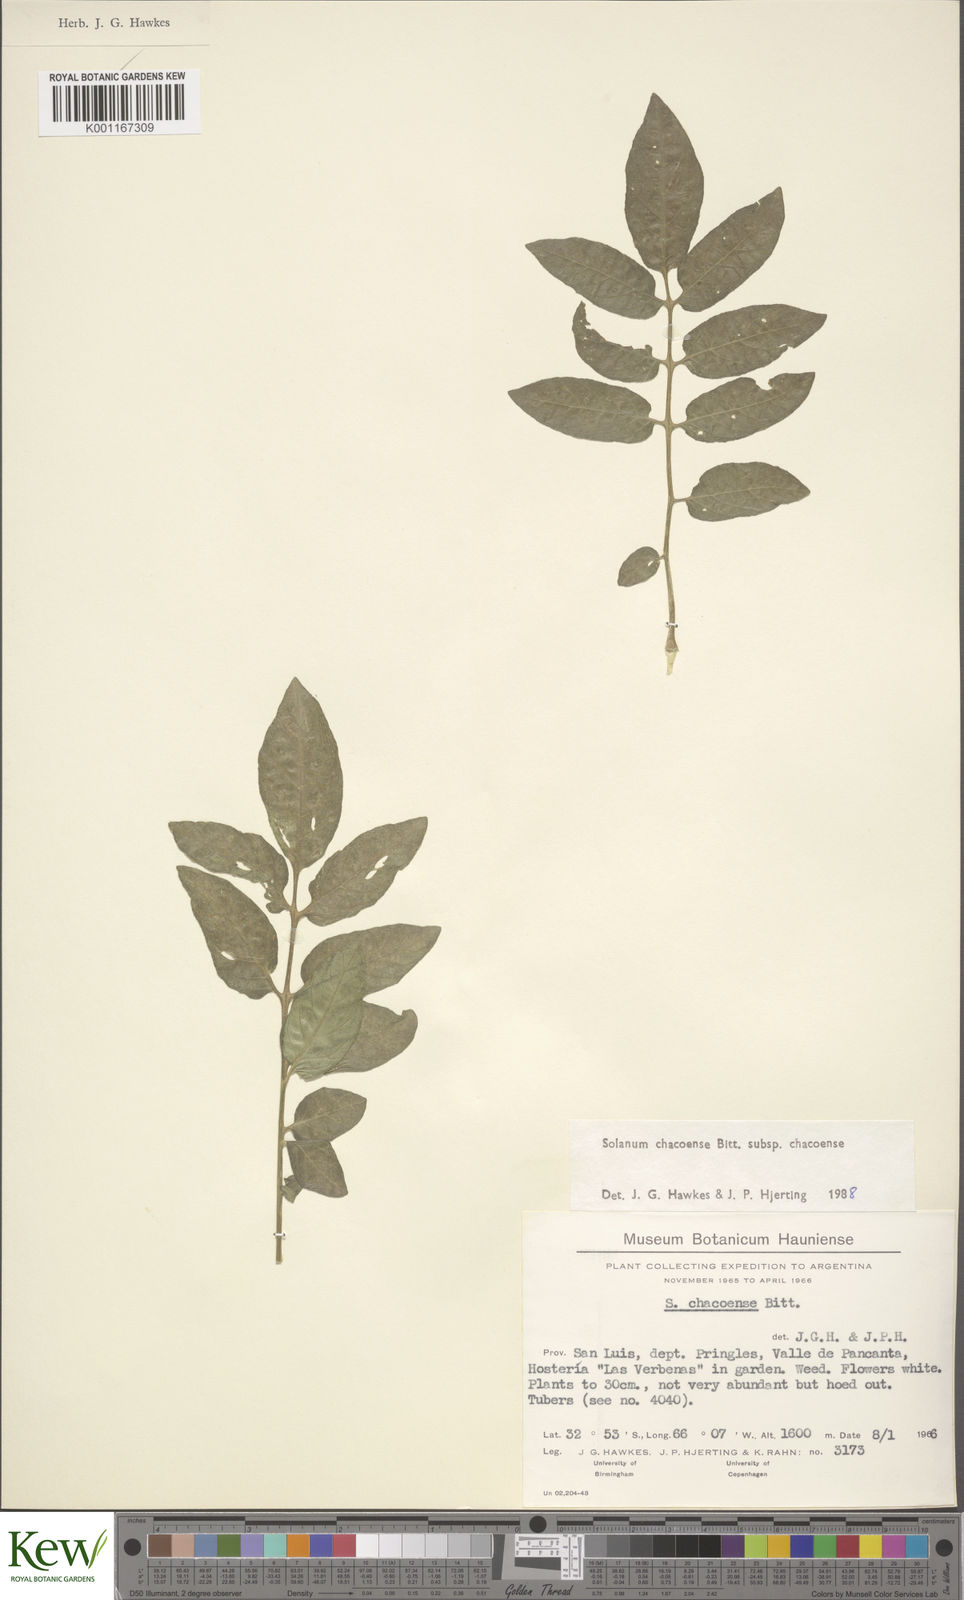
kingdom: Plantae
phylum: Tracheophyta
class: Magnoliopsida
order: Solanales
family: Solanaceae
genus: Solanum
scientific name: Solanum chacoense
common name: Chaco potato
